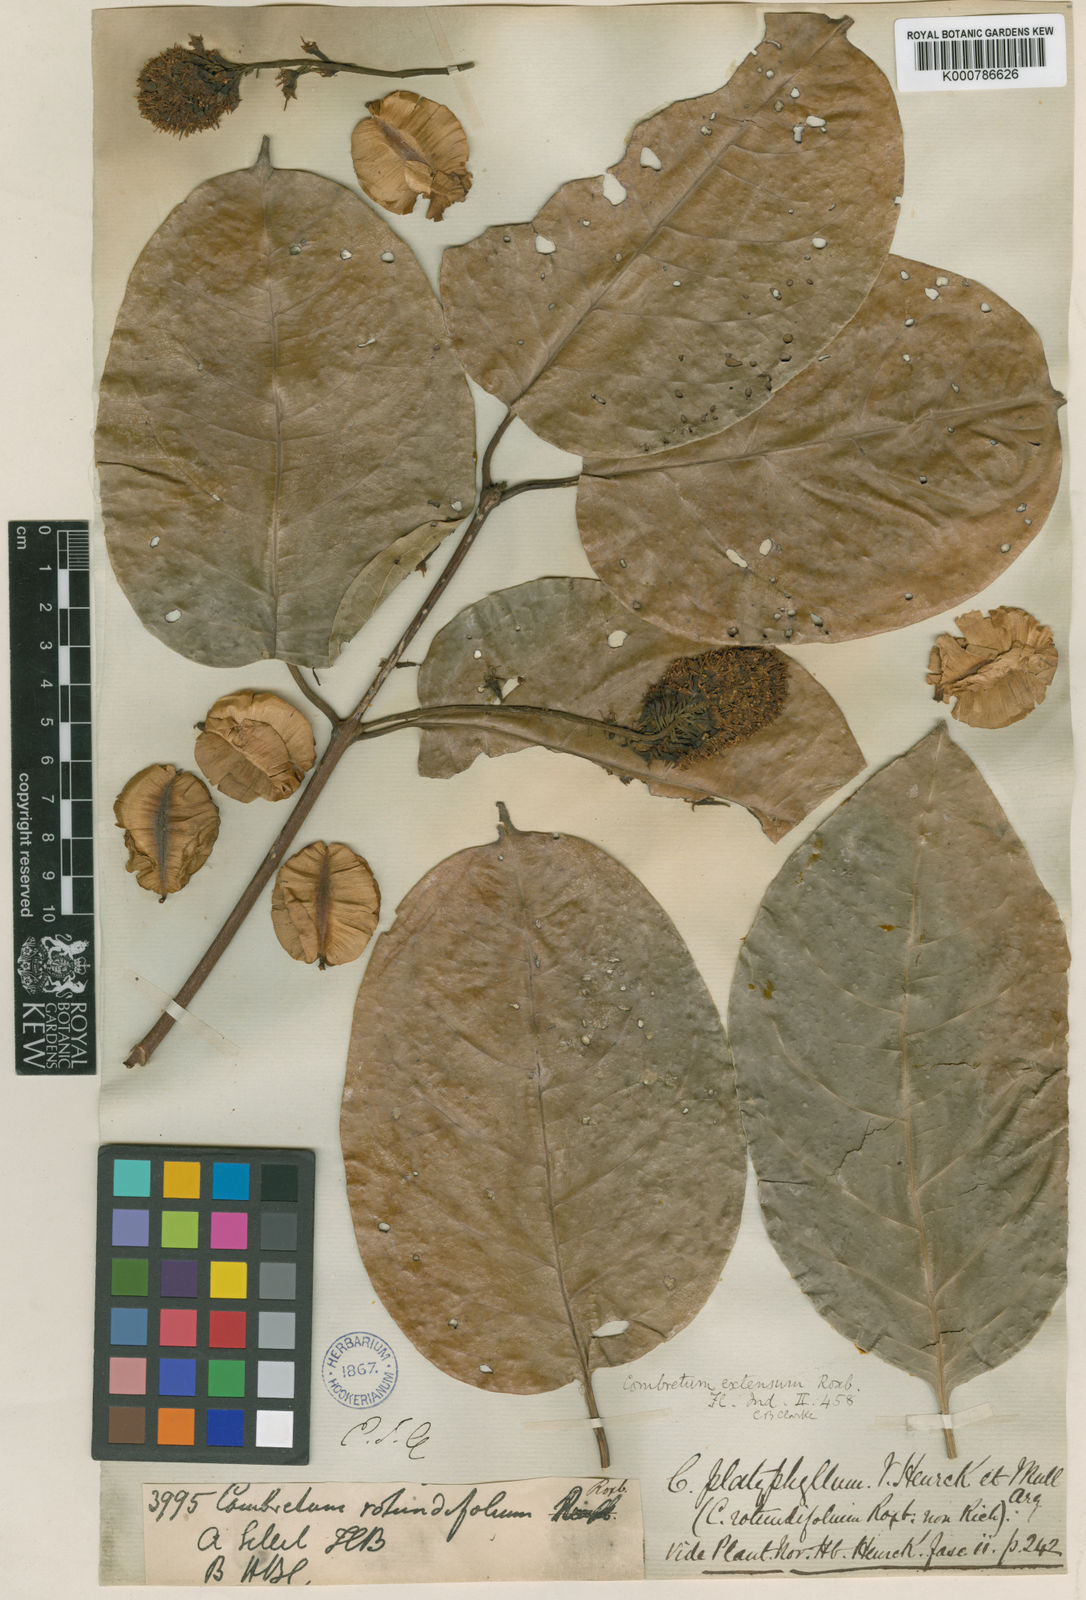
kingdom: Plantae
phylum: Tracheophyta
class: Magnoliopsida
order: Myrtales
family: Combretaceae
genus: Combretum
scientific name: Combretum latifolium
